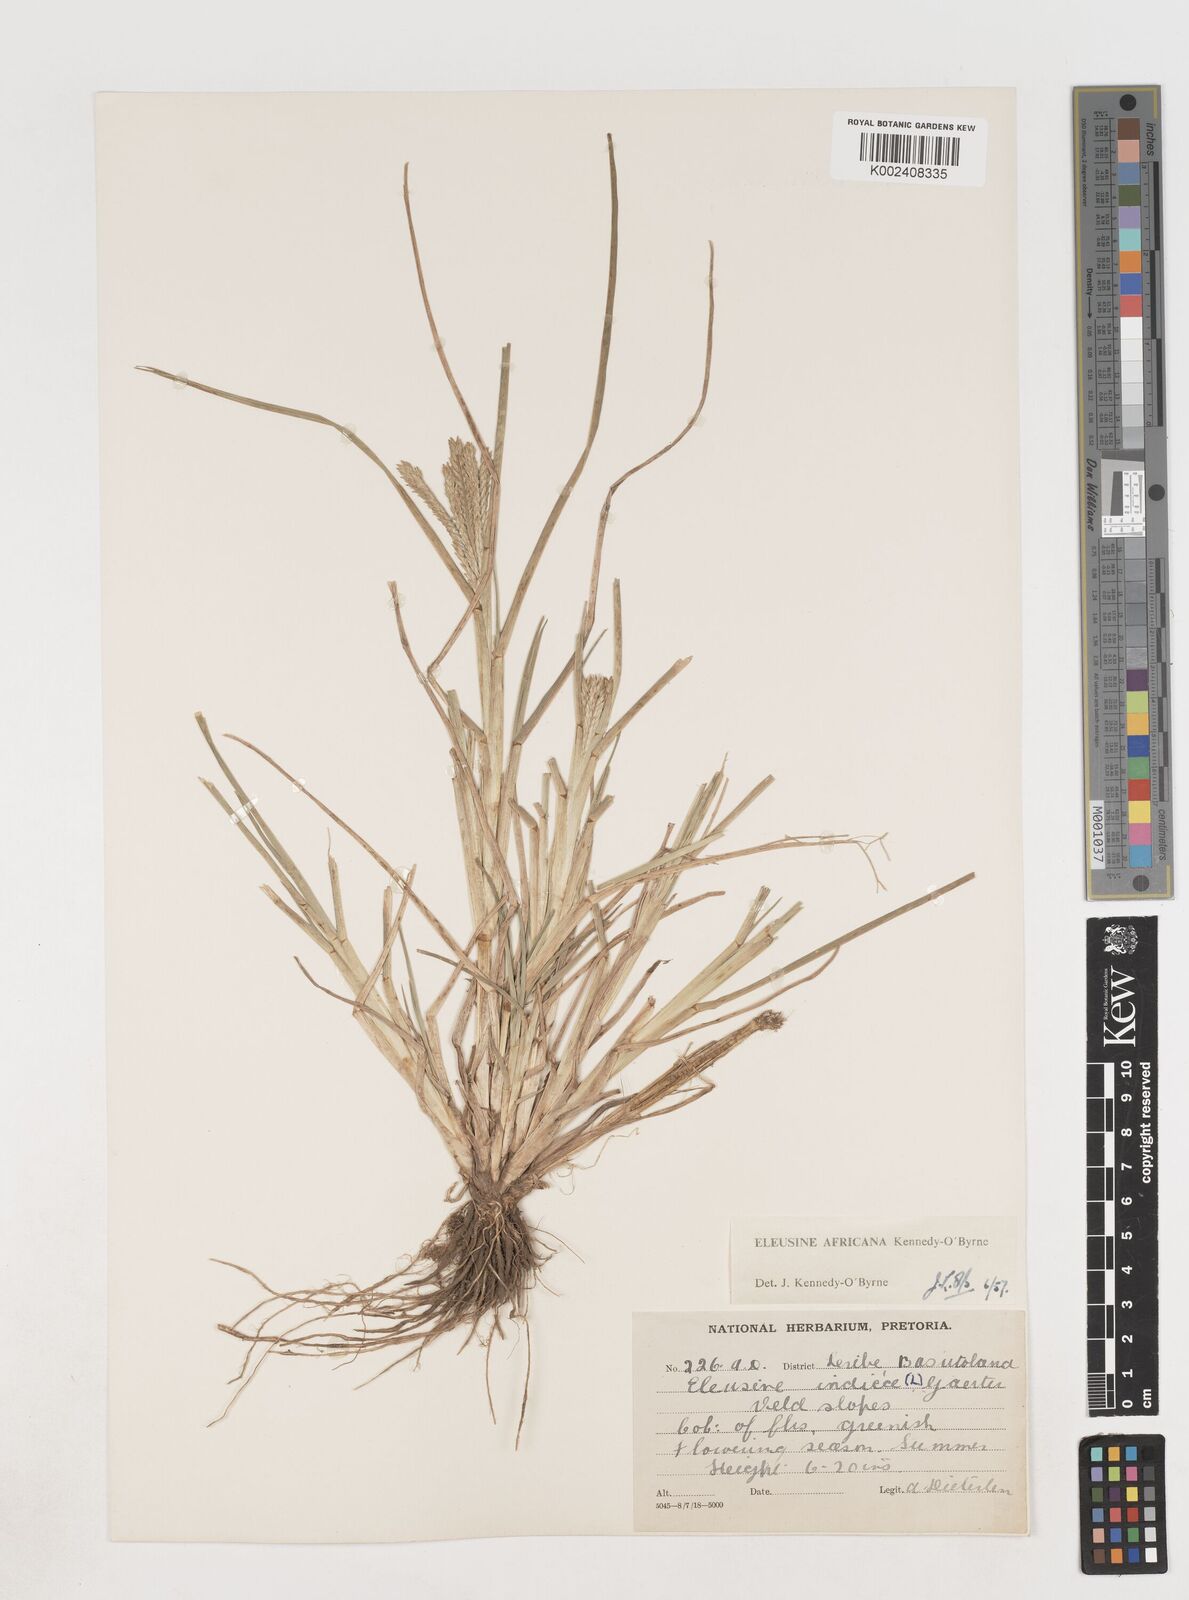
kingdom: Plantae
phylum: Tracheophyta
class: Liliopsida
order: Poales
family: Poaceae
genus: Eleusine
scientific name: Eleusine africana
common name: Wild african finger millet
